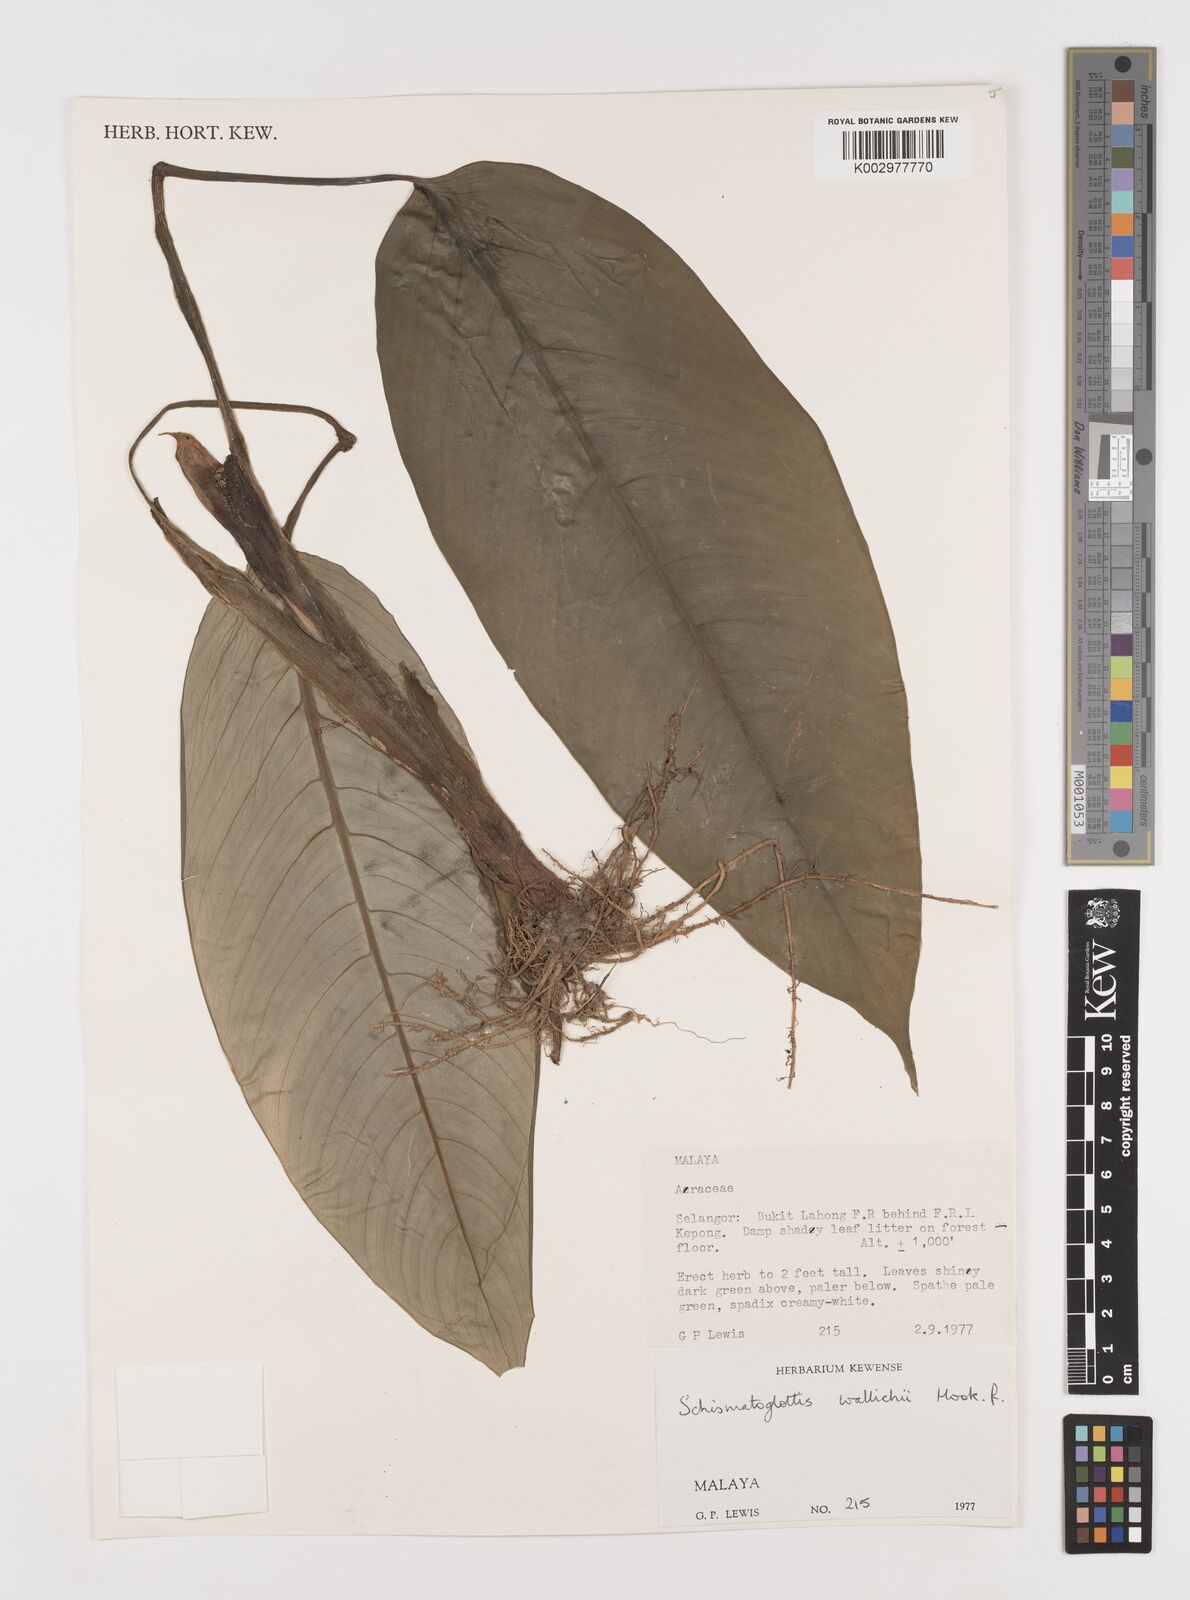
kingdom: Plantae
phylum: Tracheophyta
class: Liliopsida
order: Alismatales
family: Araceae
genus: Schismatoglottis
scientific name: Schismatoglottis wallichii
